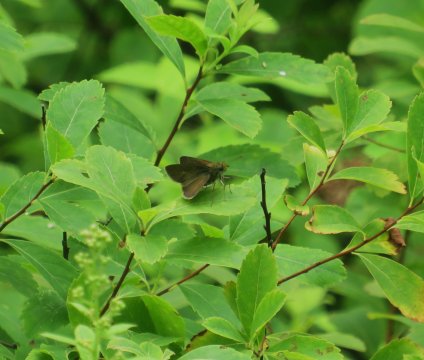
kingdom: Animalia
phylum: Arthropoda
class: Insecta
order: Lepidoptera
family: Hesperiidae
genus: Euphyes
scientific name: Euphyes vestris
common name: Dun Skipper
